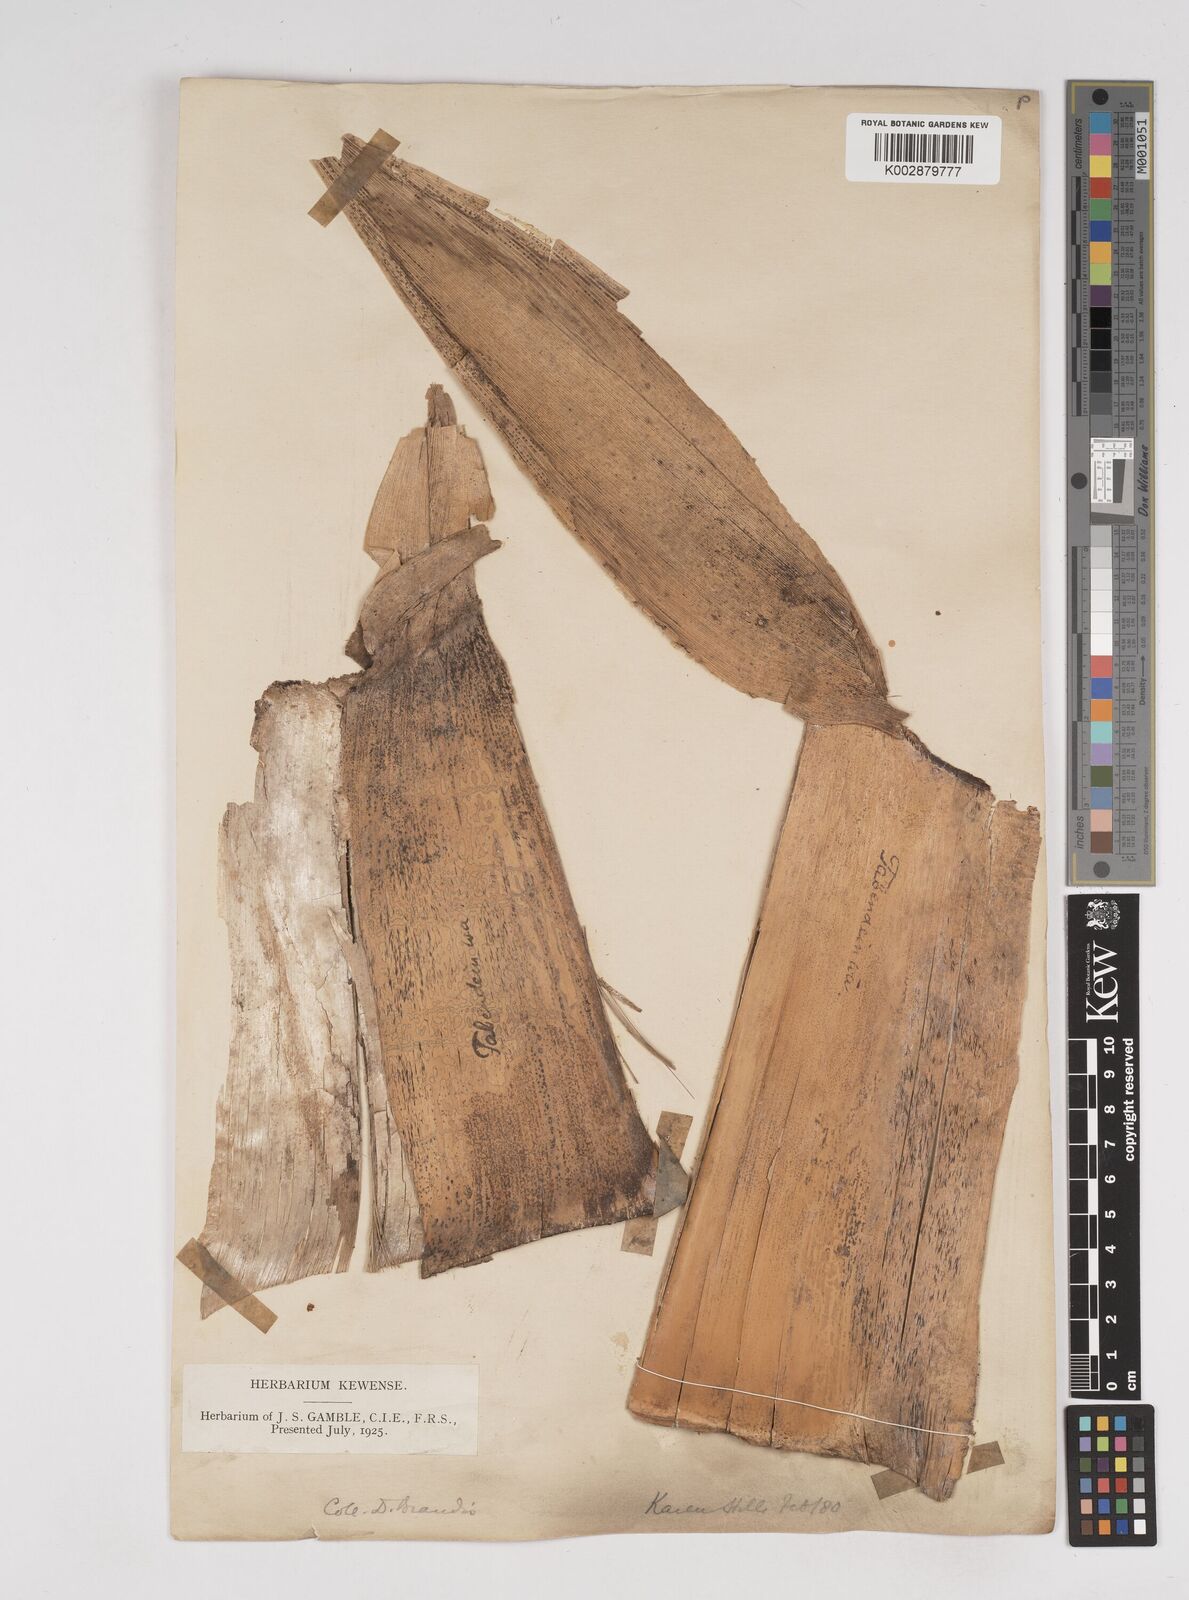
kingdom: Plantae
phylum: Tracheophyta
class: Liliopsida
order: Poales
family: Poaceae
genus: Gigantochloa
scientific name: Gigantochloa macrostachya
